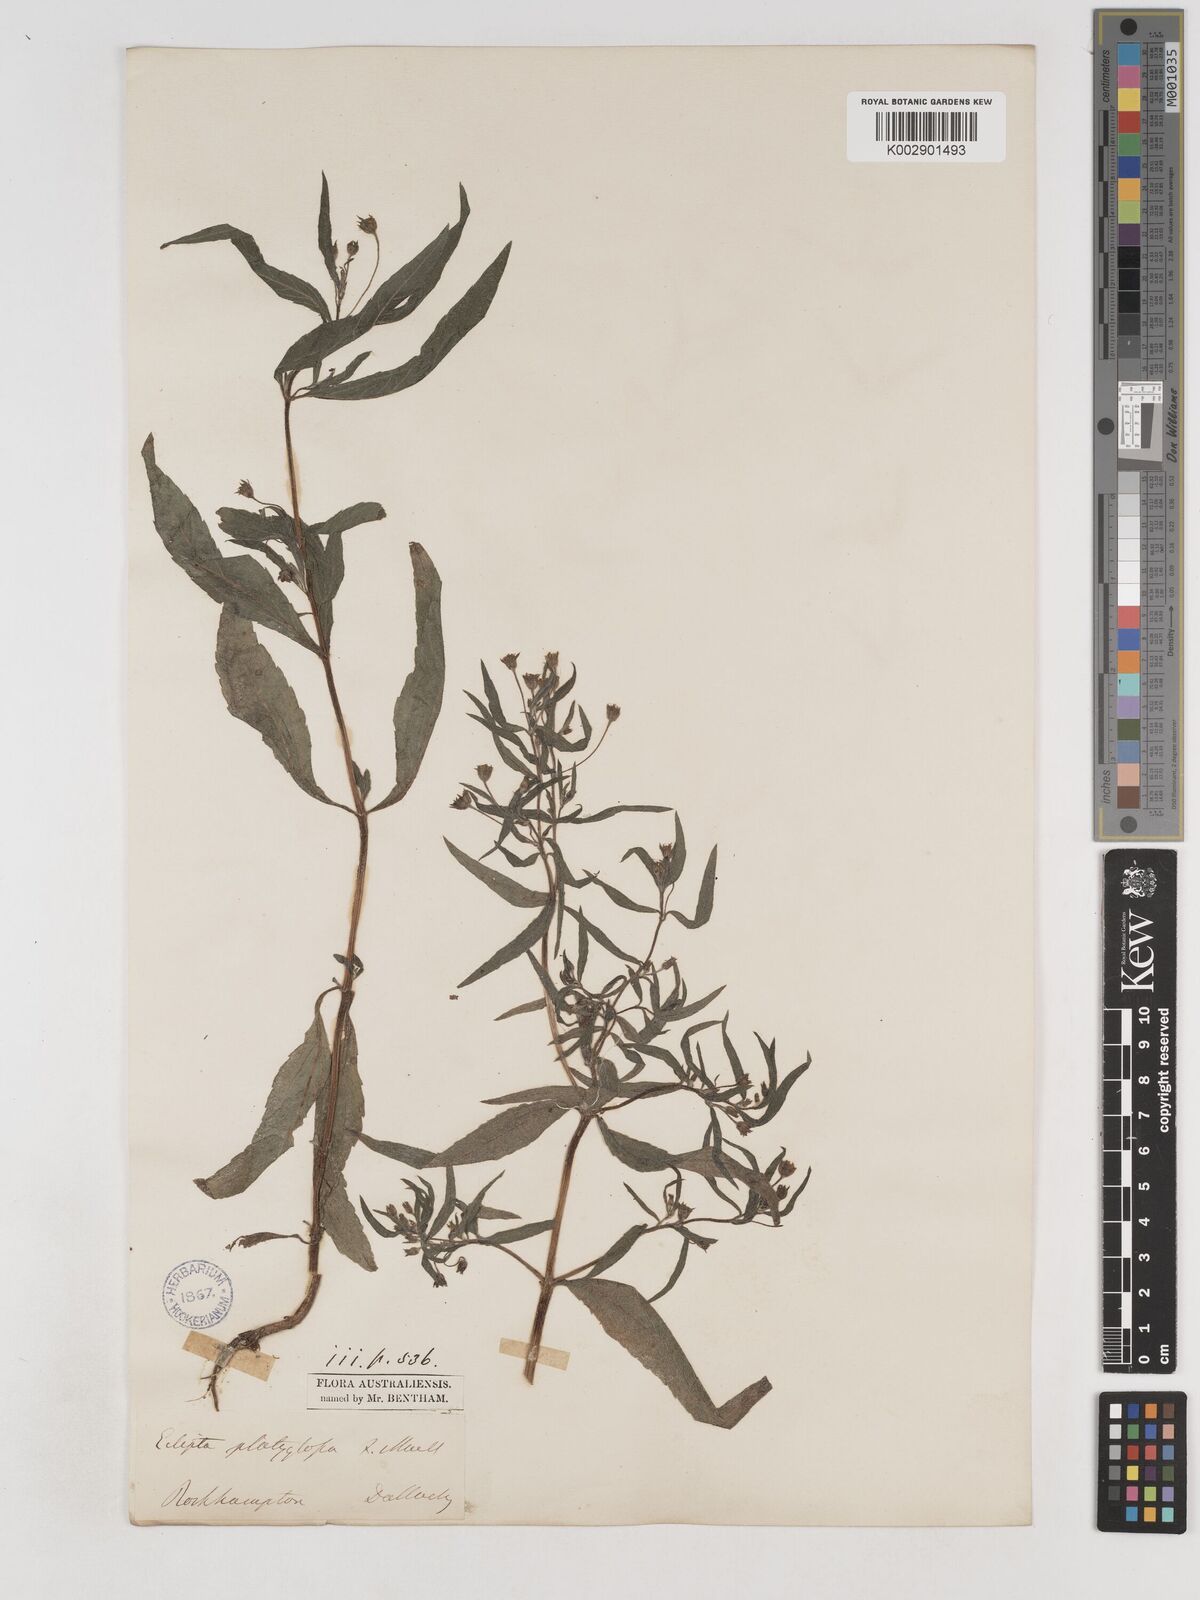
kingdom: Plantae
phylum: Tracheophyta
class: Magnoliopsida
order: Asterales
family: Asteraceae
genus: Eclipta
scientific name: Eclipta platyglossa
